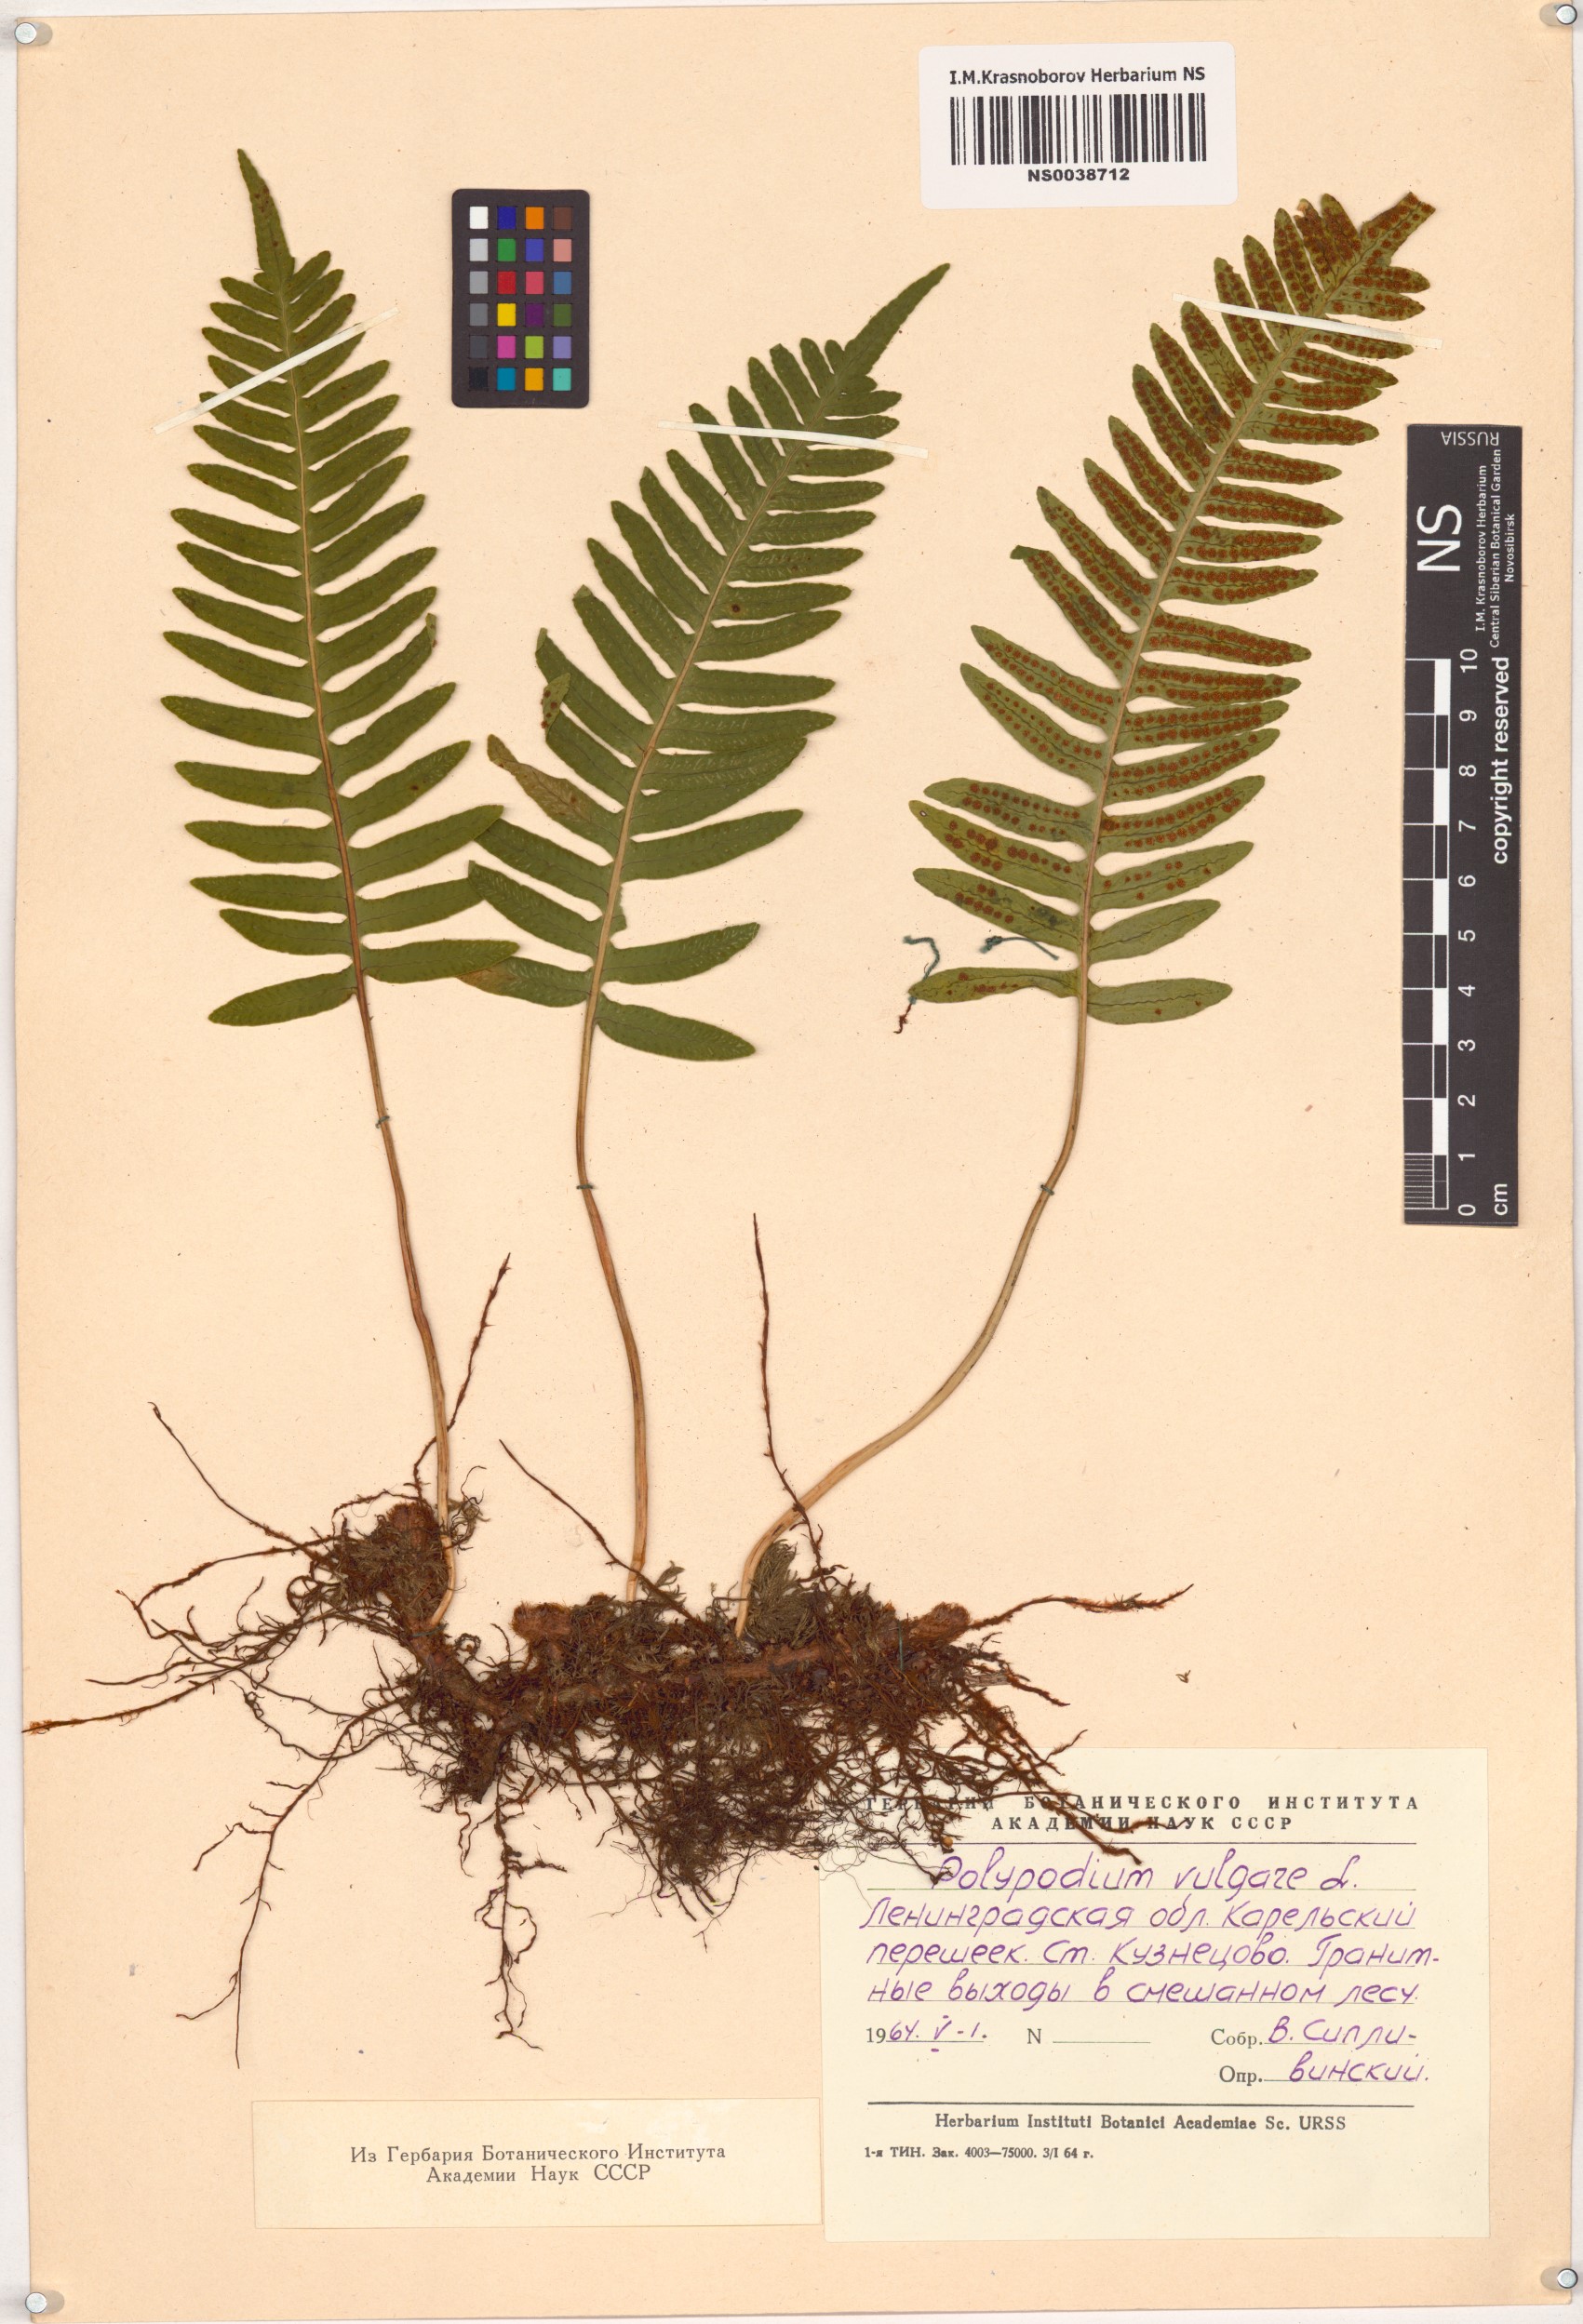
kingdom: Plantae
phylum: Tracheophyta
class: Polypodiopsida
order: Polypodiales
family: Polypodiaceae
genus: Polypodium
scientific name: Polypodium vulgare
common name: Common polypody
